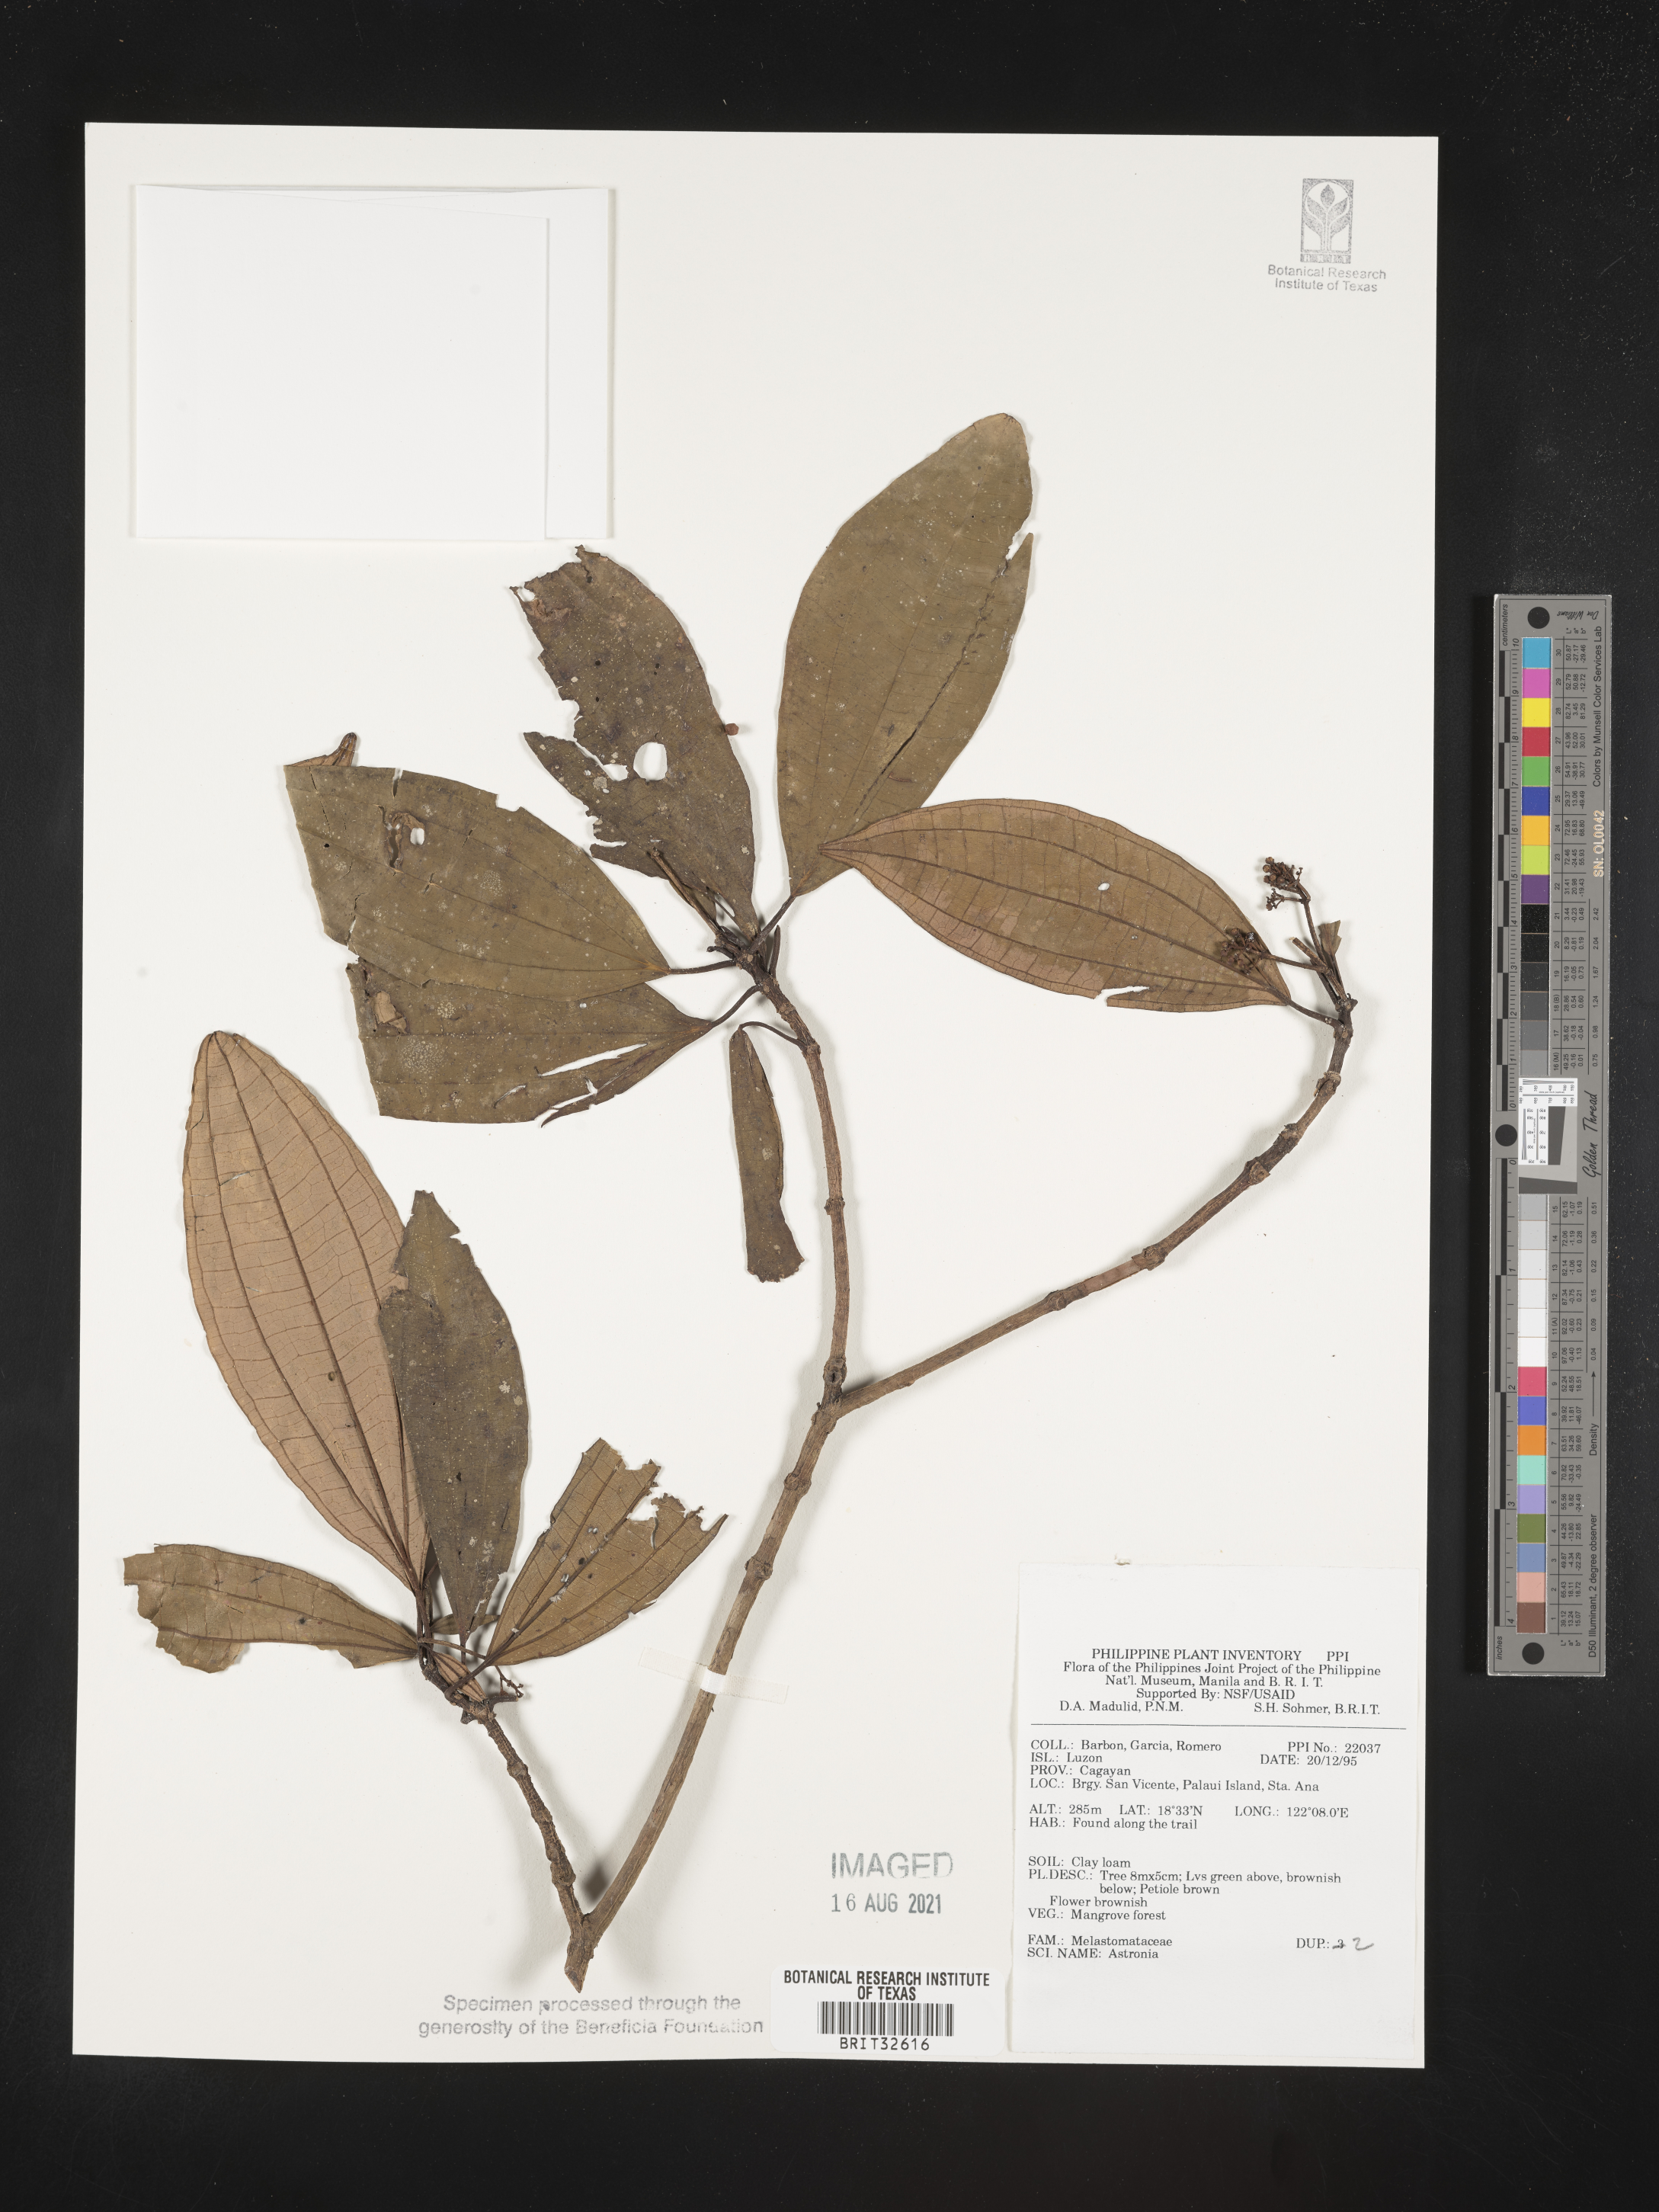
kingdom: Plantae
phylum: Tracheophyta
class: Magnoliopsida
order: Myrtales
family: Melastomataceae
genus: Astronia
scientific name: Astronia
